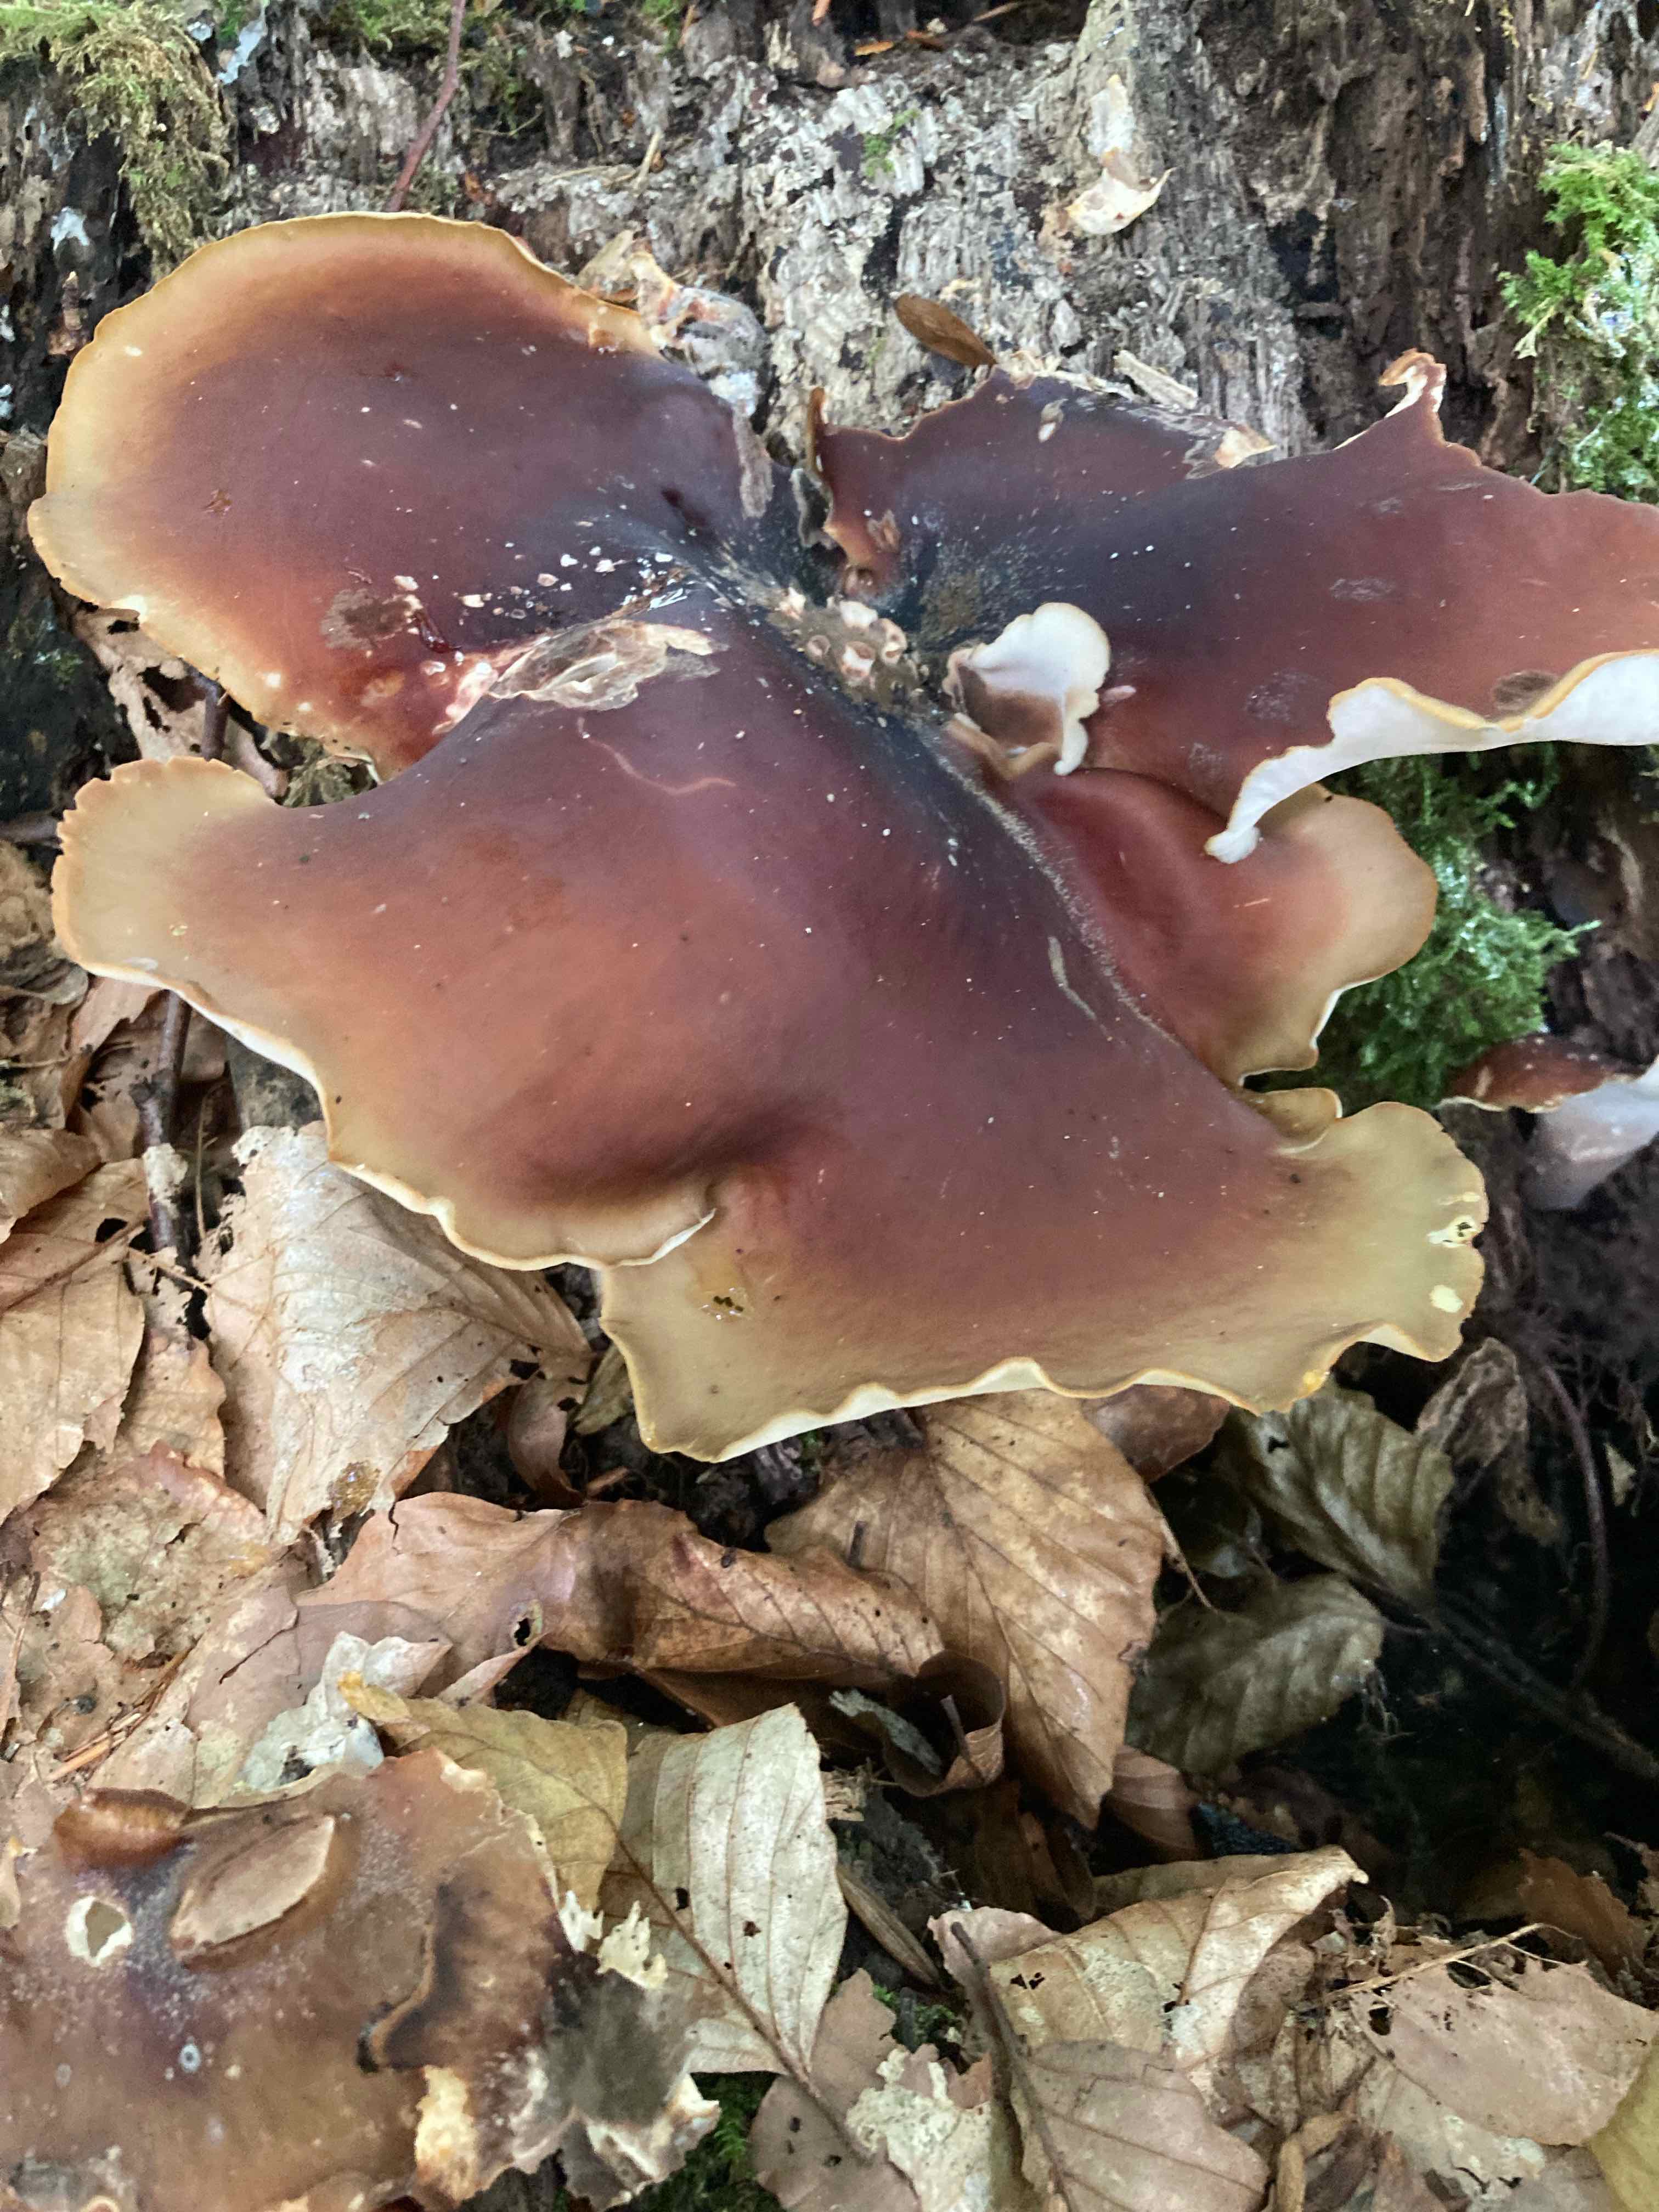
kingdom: Fungi
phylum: Basidiomycota
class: Agaricomycetes
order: Polyporales
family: Polyporaceae
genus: Picipes
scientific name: Picipes badius
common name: kastaniebrun stilkporesvamp
